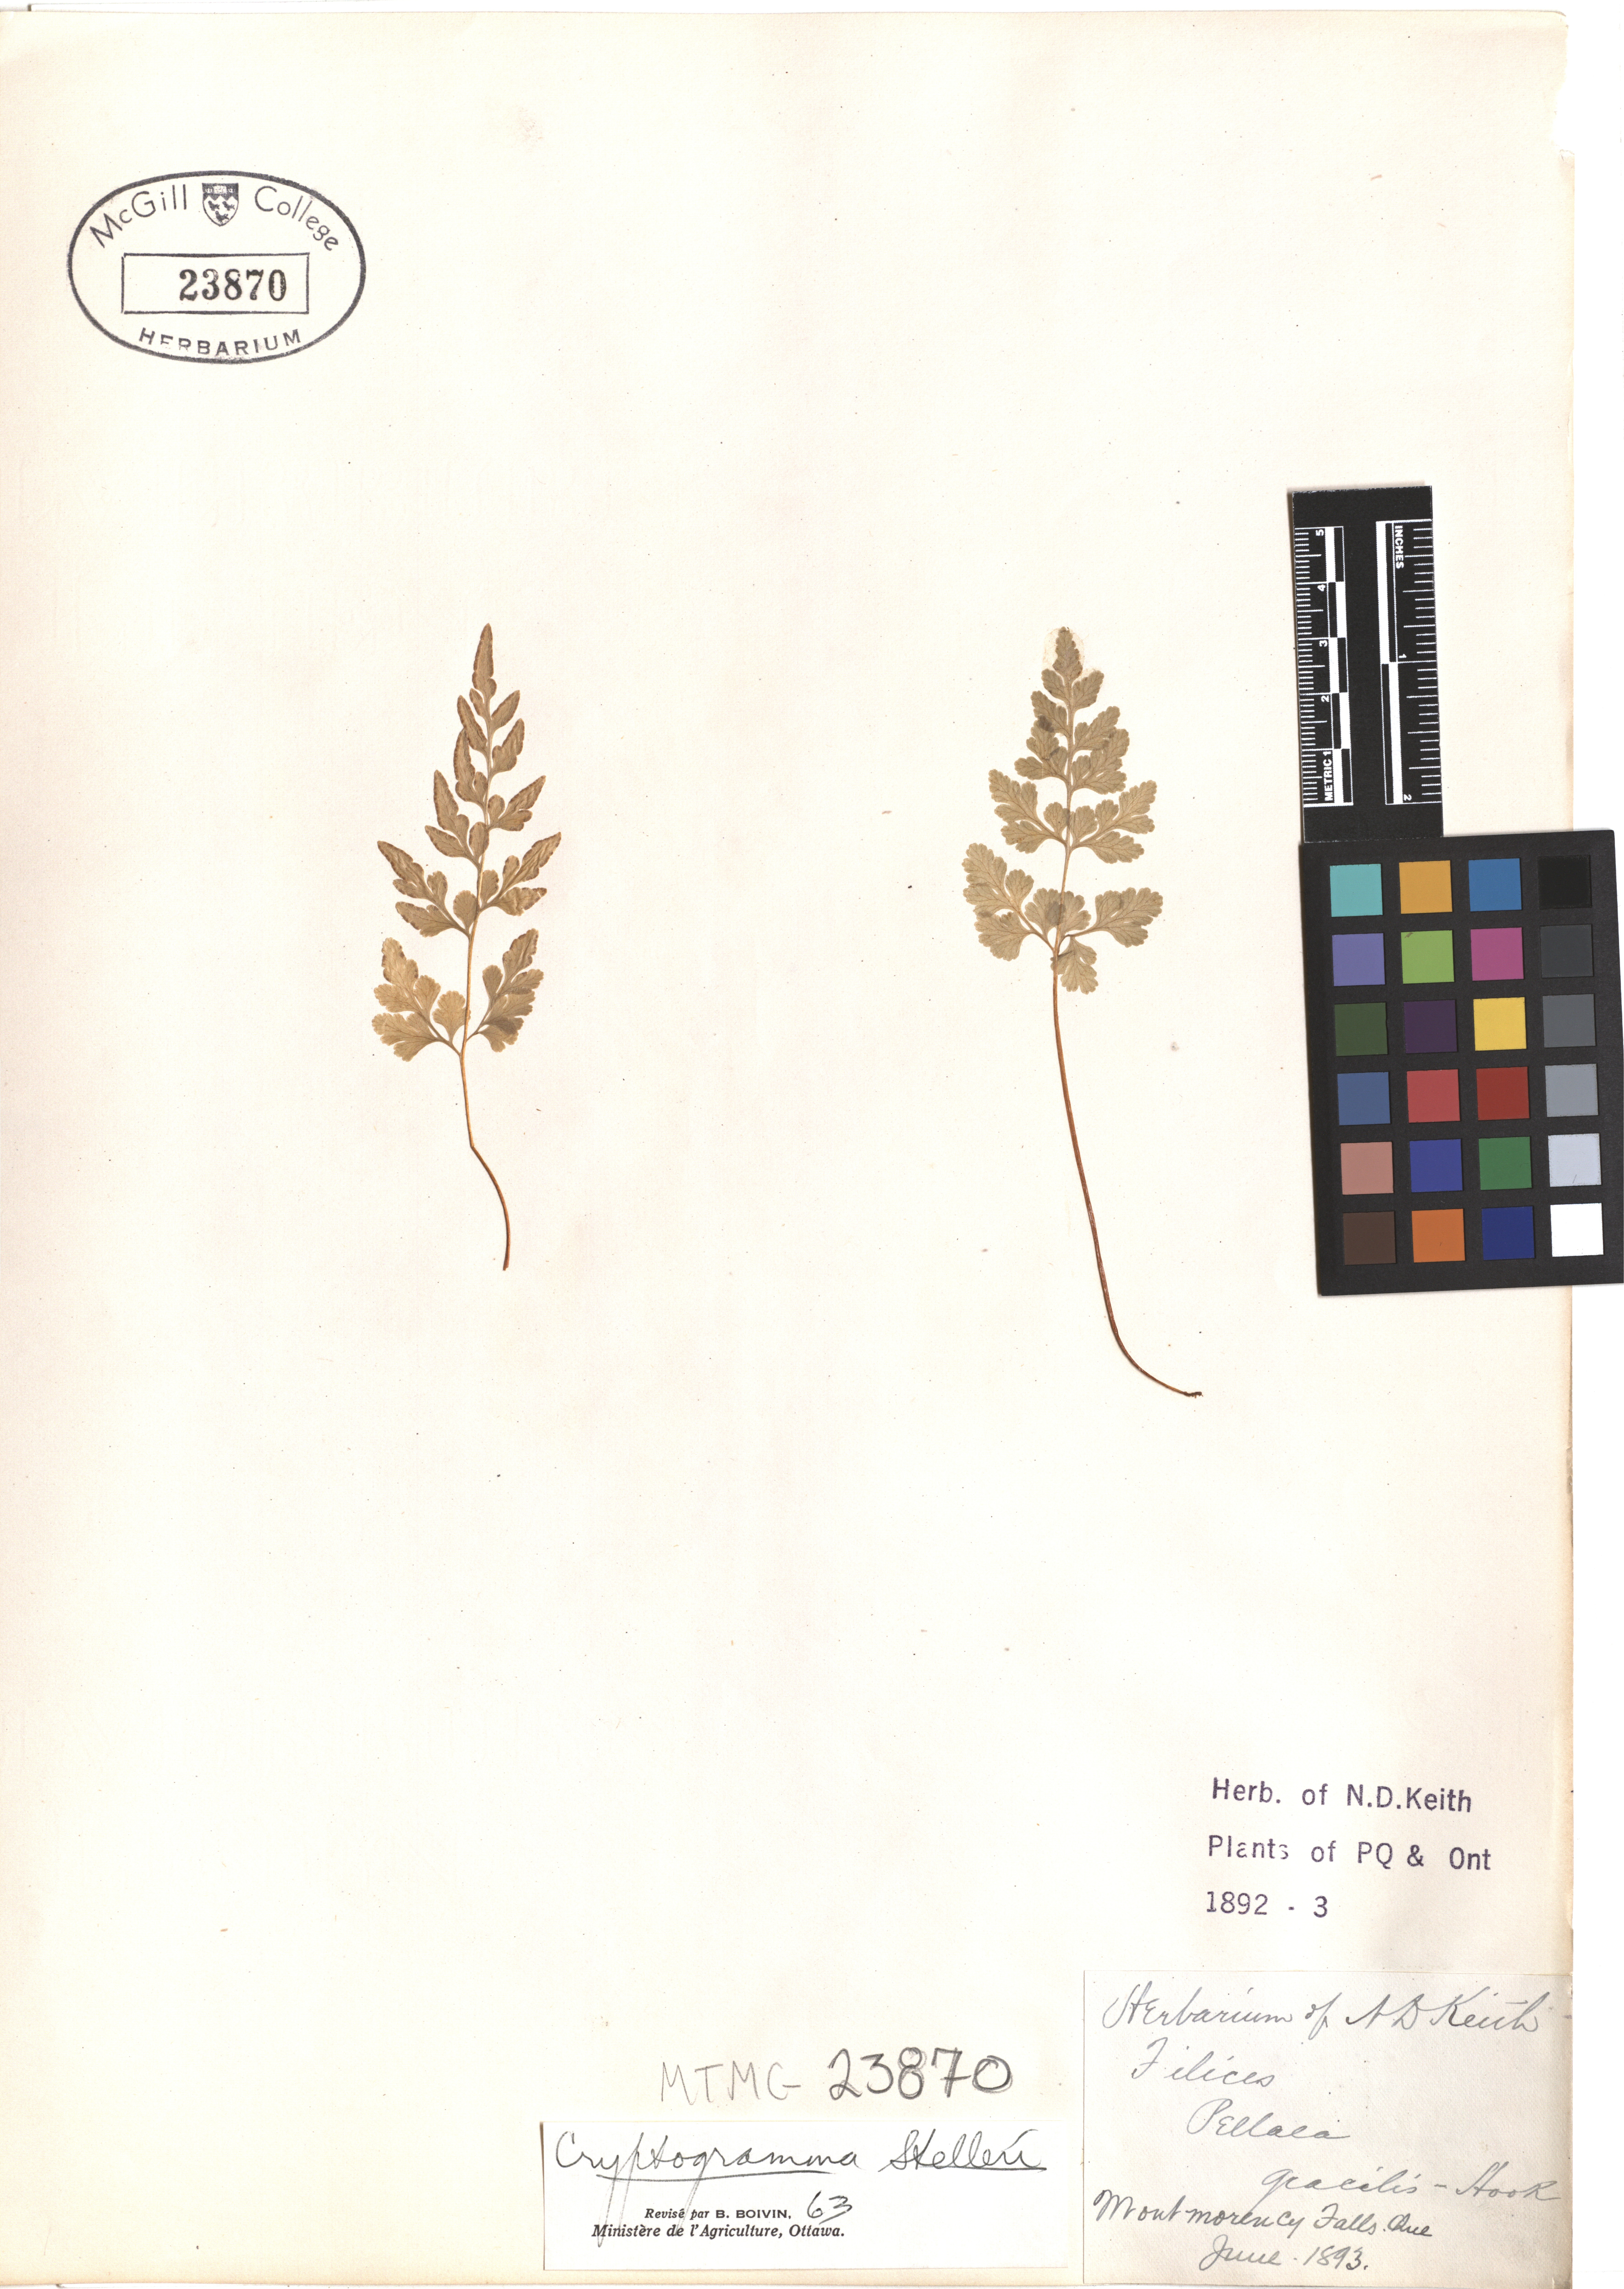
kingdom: Plantae
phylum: Tracheophyta
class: Polypodiopsida
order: Polypodiales
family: Pteridaceae
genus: Cryptogramma
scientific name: Cryptogramma stelleri
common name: Cliff-brake
